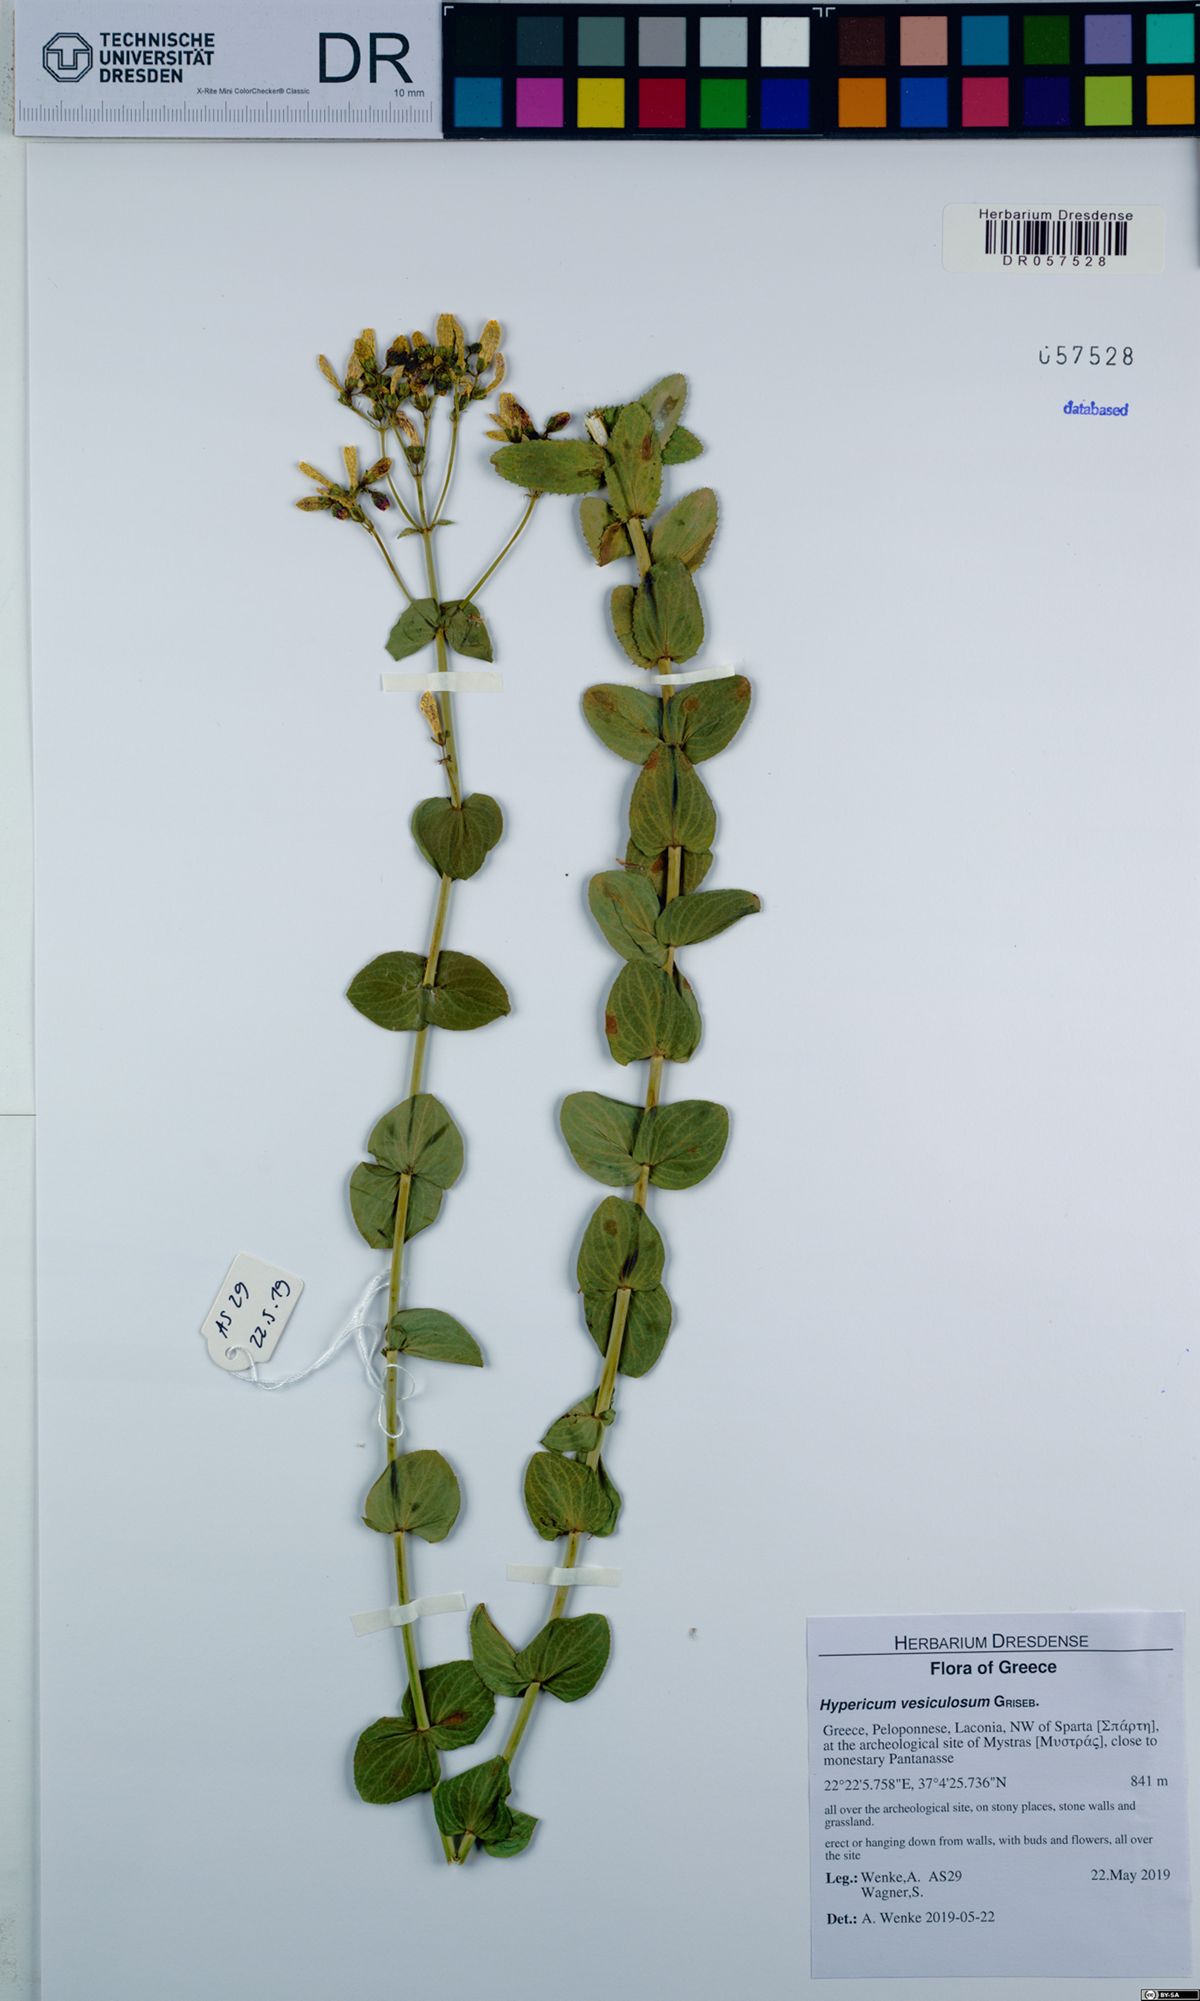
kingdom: Plantae
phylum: Tracheophyta
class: Magnoliopsida
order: Malpighiales
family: Hypericaceae
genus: Hypericum
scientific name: Hypericum vesiculosum
